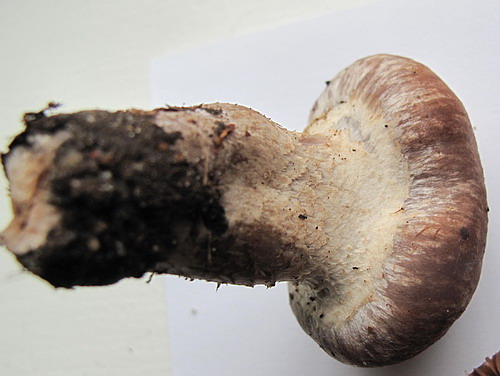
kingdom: Fungi
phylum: Basidiomycota
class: Agaricomycetes
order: Agaricales
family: Cortinariaceae
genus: Cortinarius
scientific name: Cortinarius torvus
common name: champignonagtig slørhat
